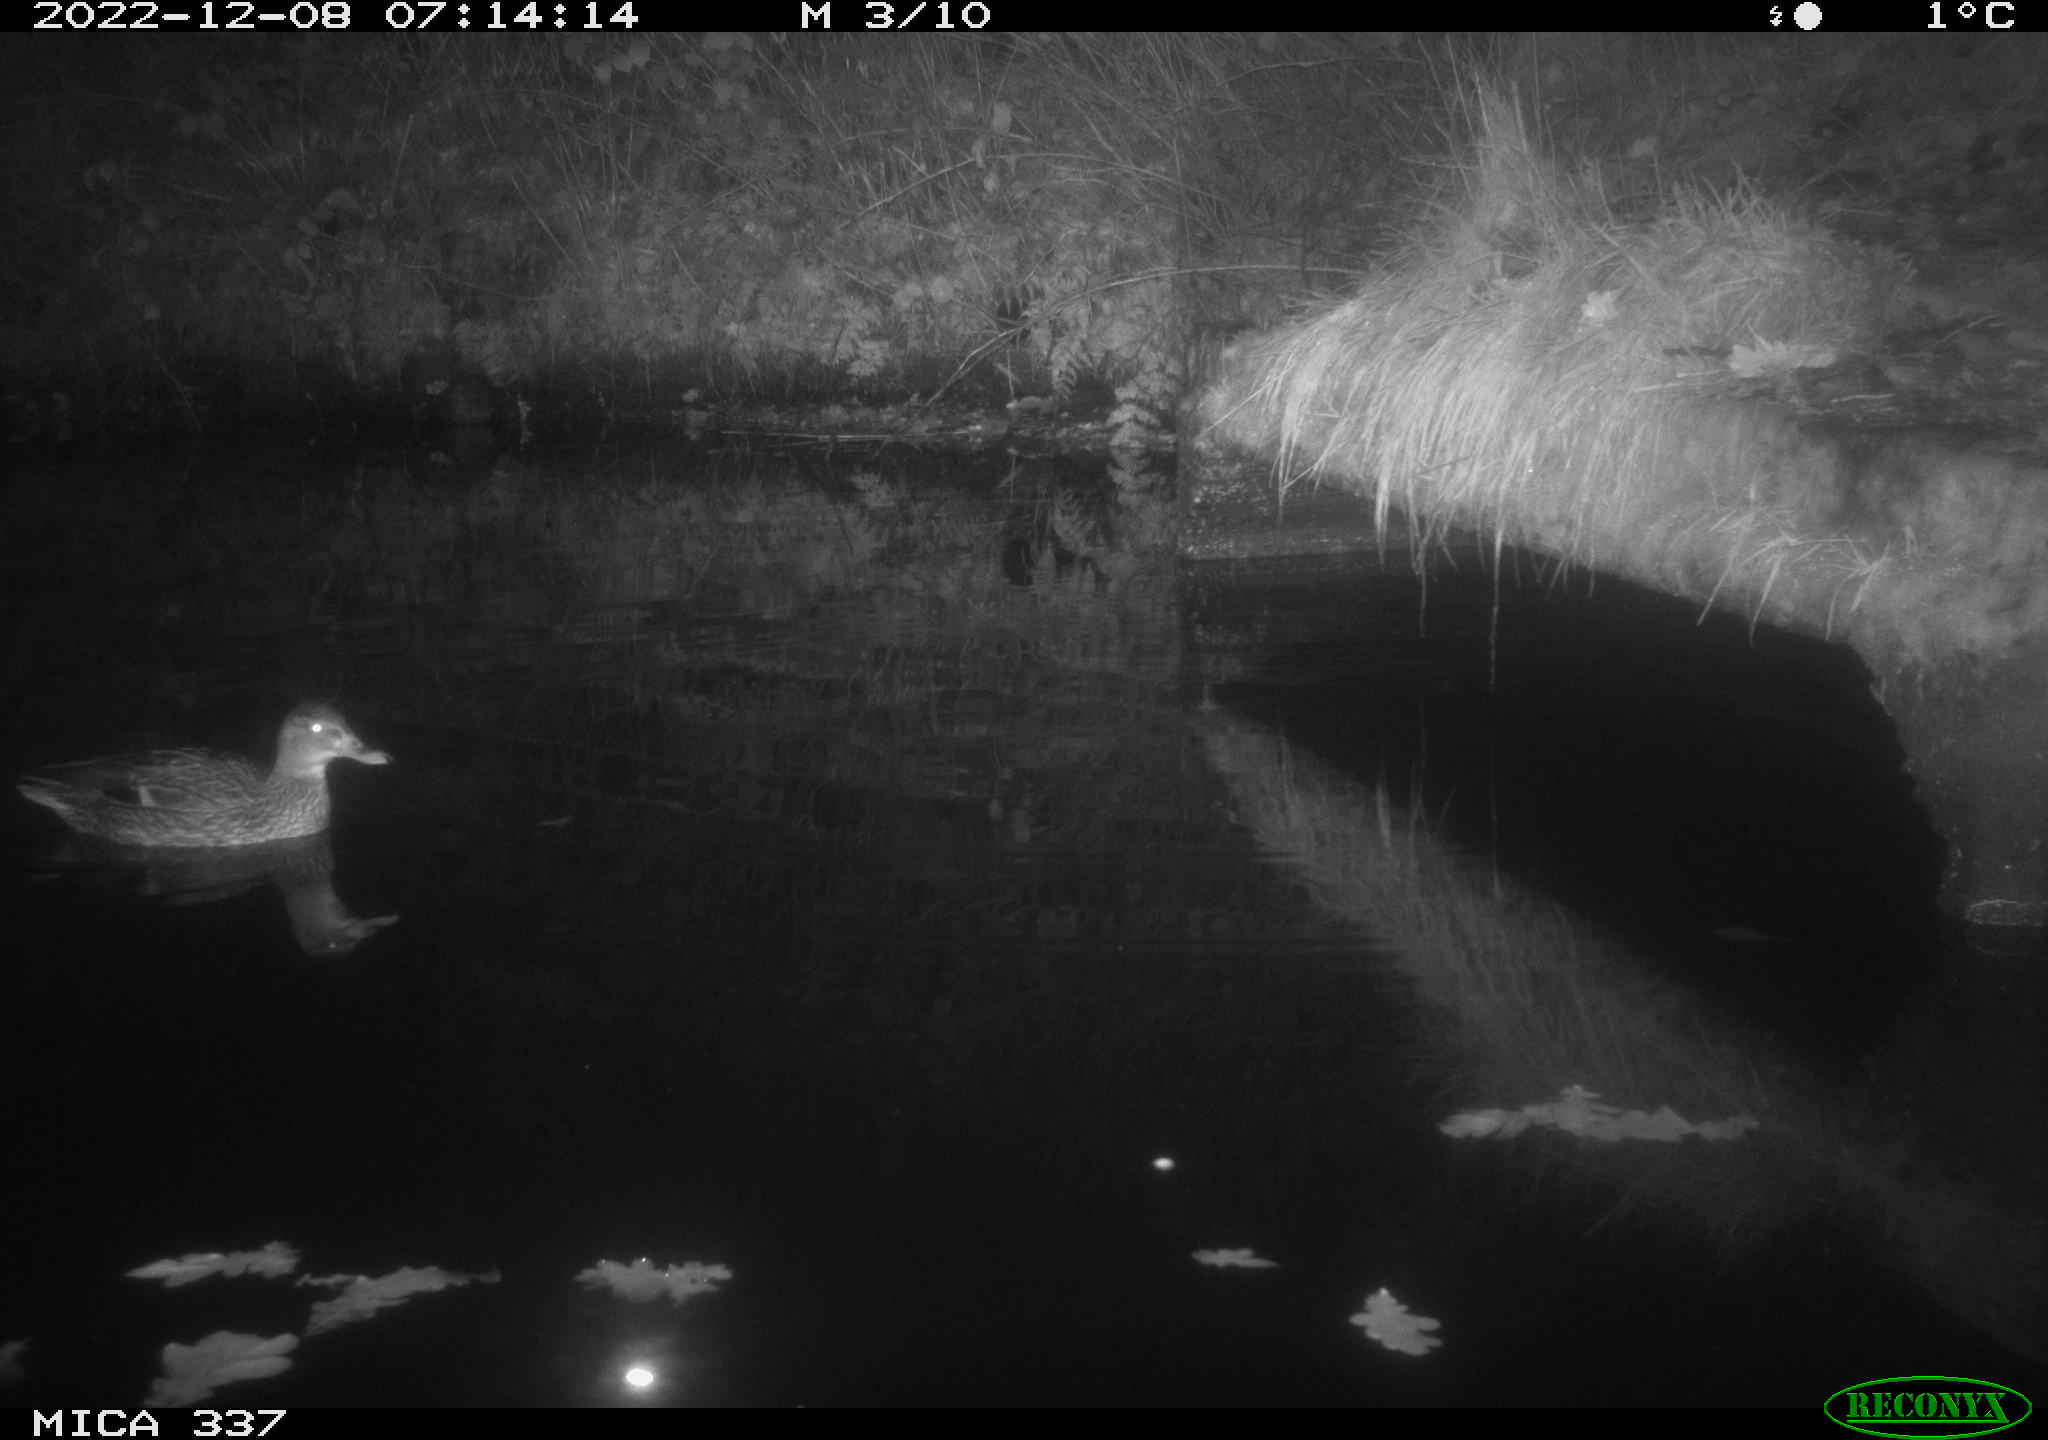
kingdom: Animalia
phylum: Chordata
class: Aves
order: Anseriformes
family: Anatidae
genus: Anas
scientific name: Anas
